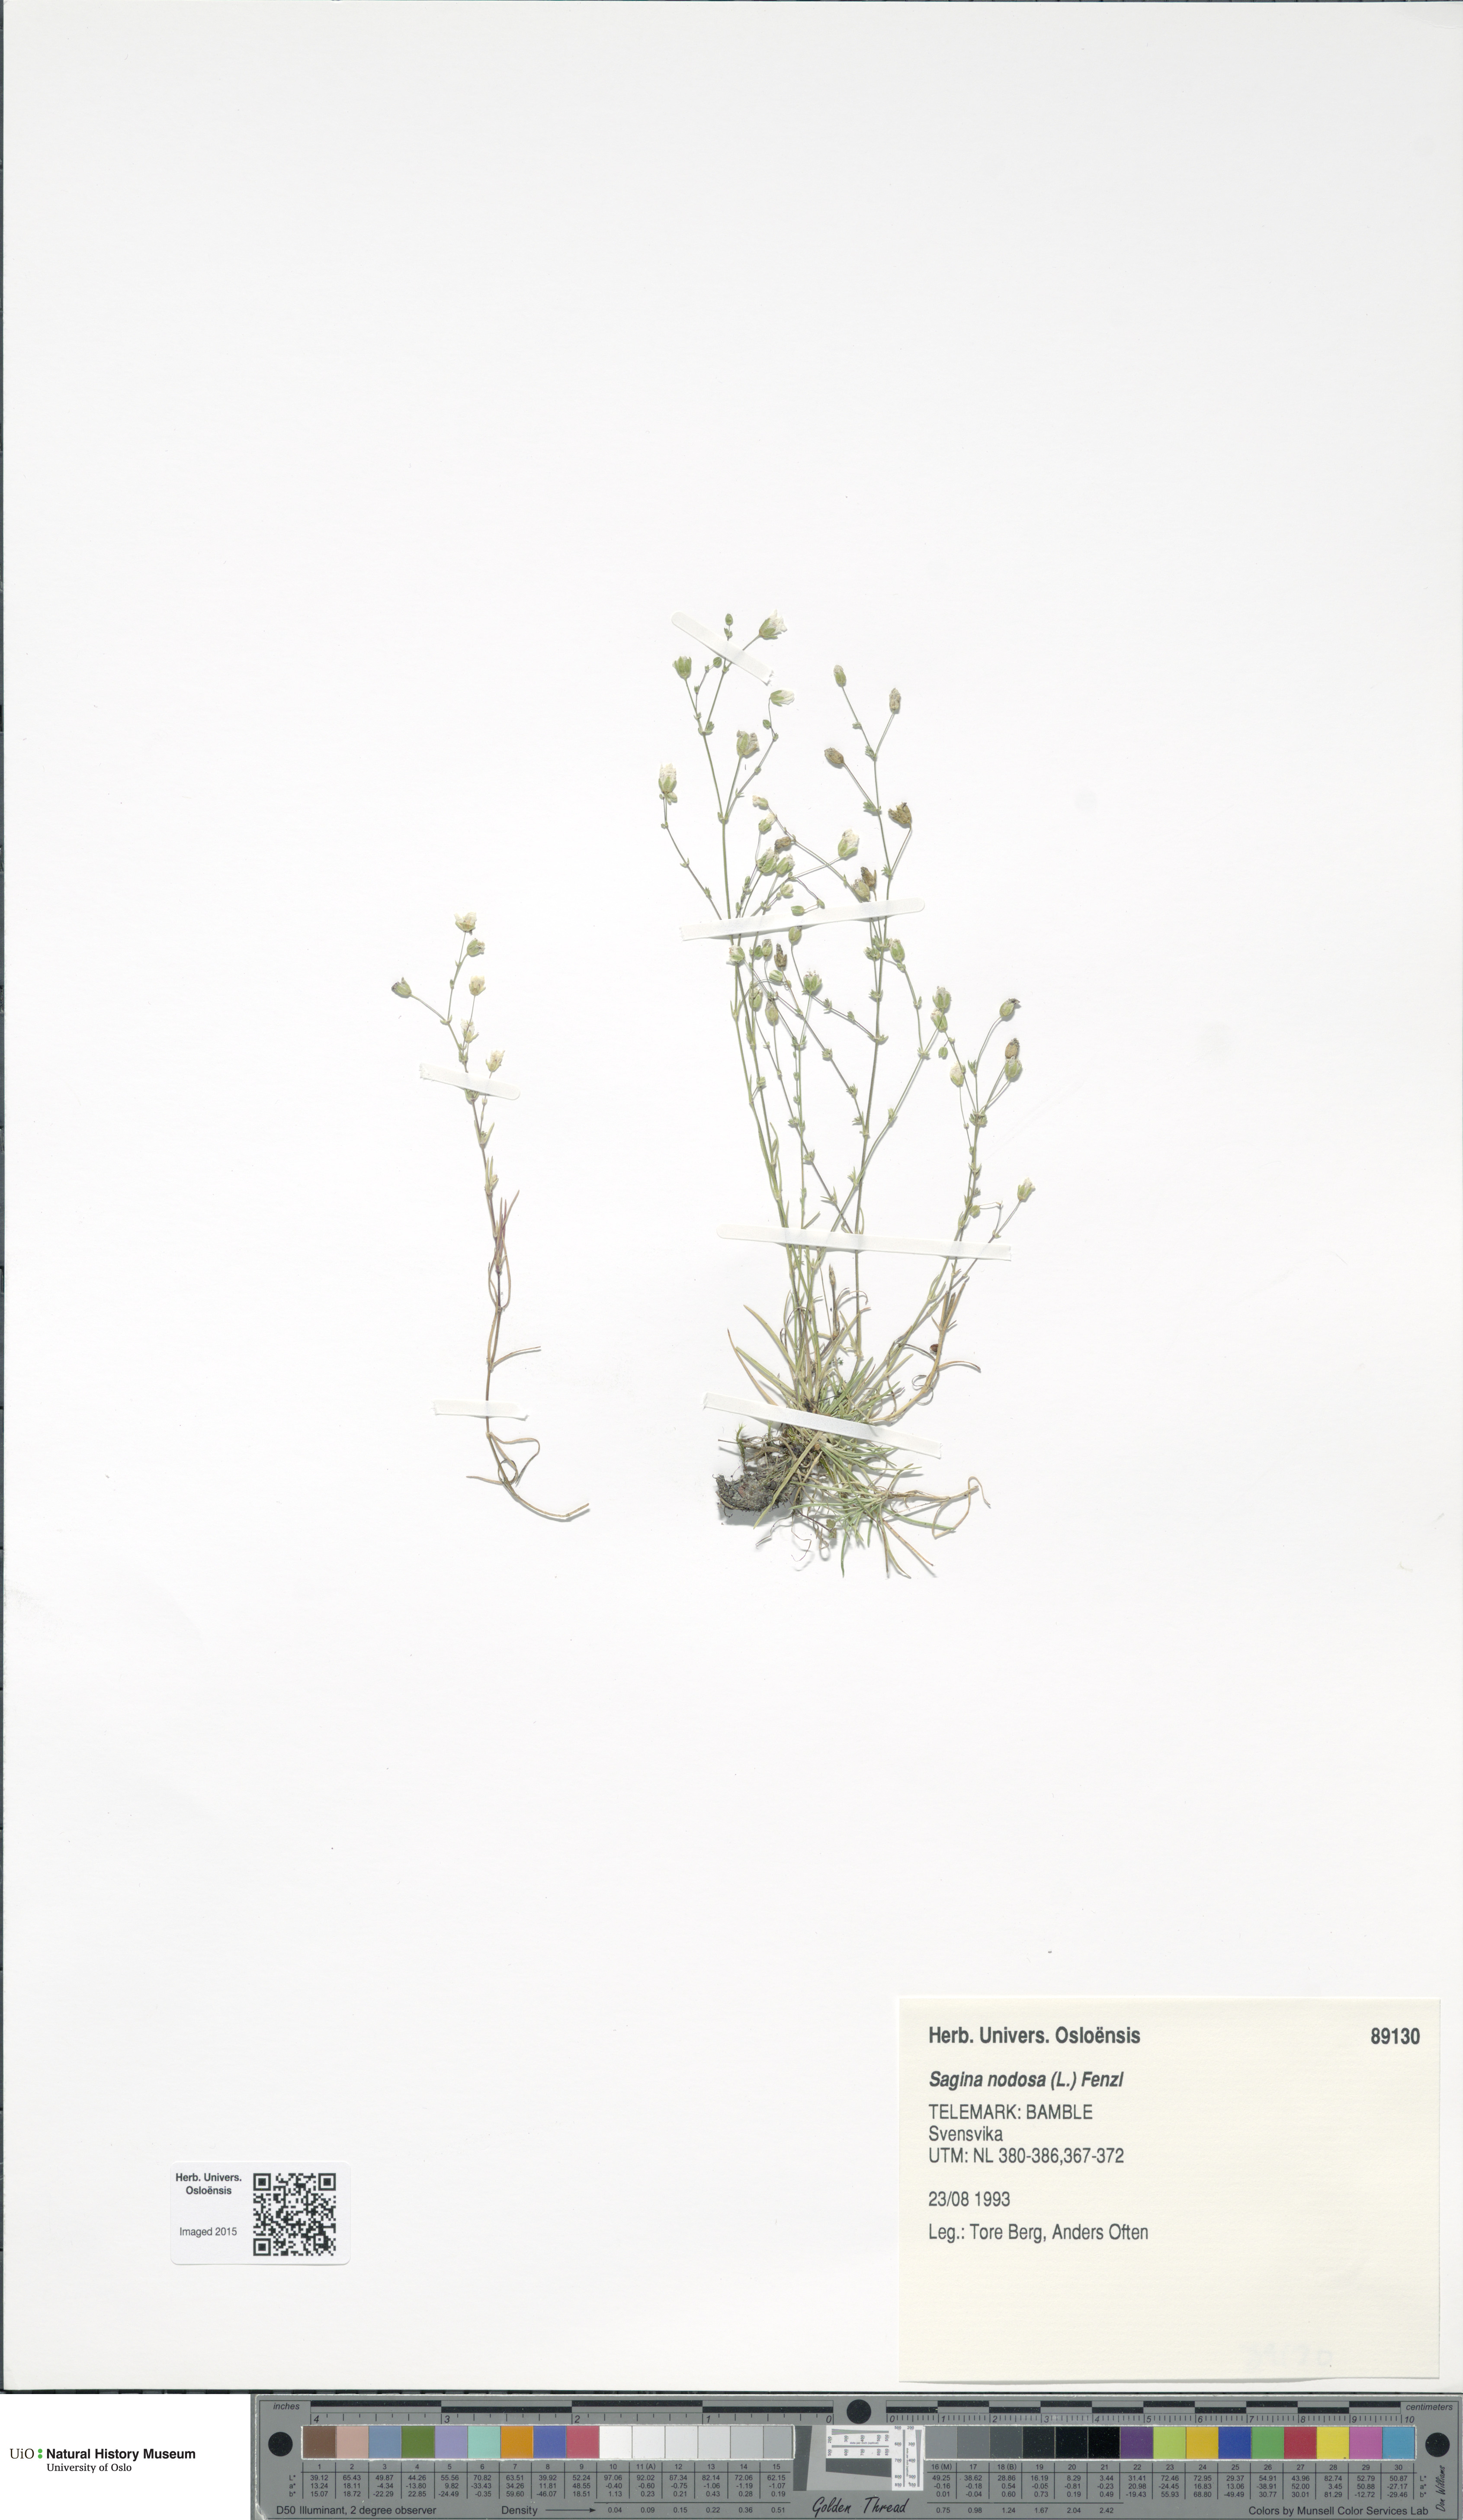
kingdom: Plantae
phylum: Tracheophyta
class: Magnoliopsida
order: Caryophyllales
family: Caryophyllaceae
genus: Sagina
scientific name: Sagina nodosa
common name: Knotted pearlwort
